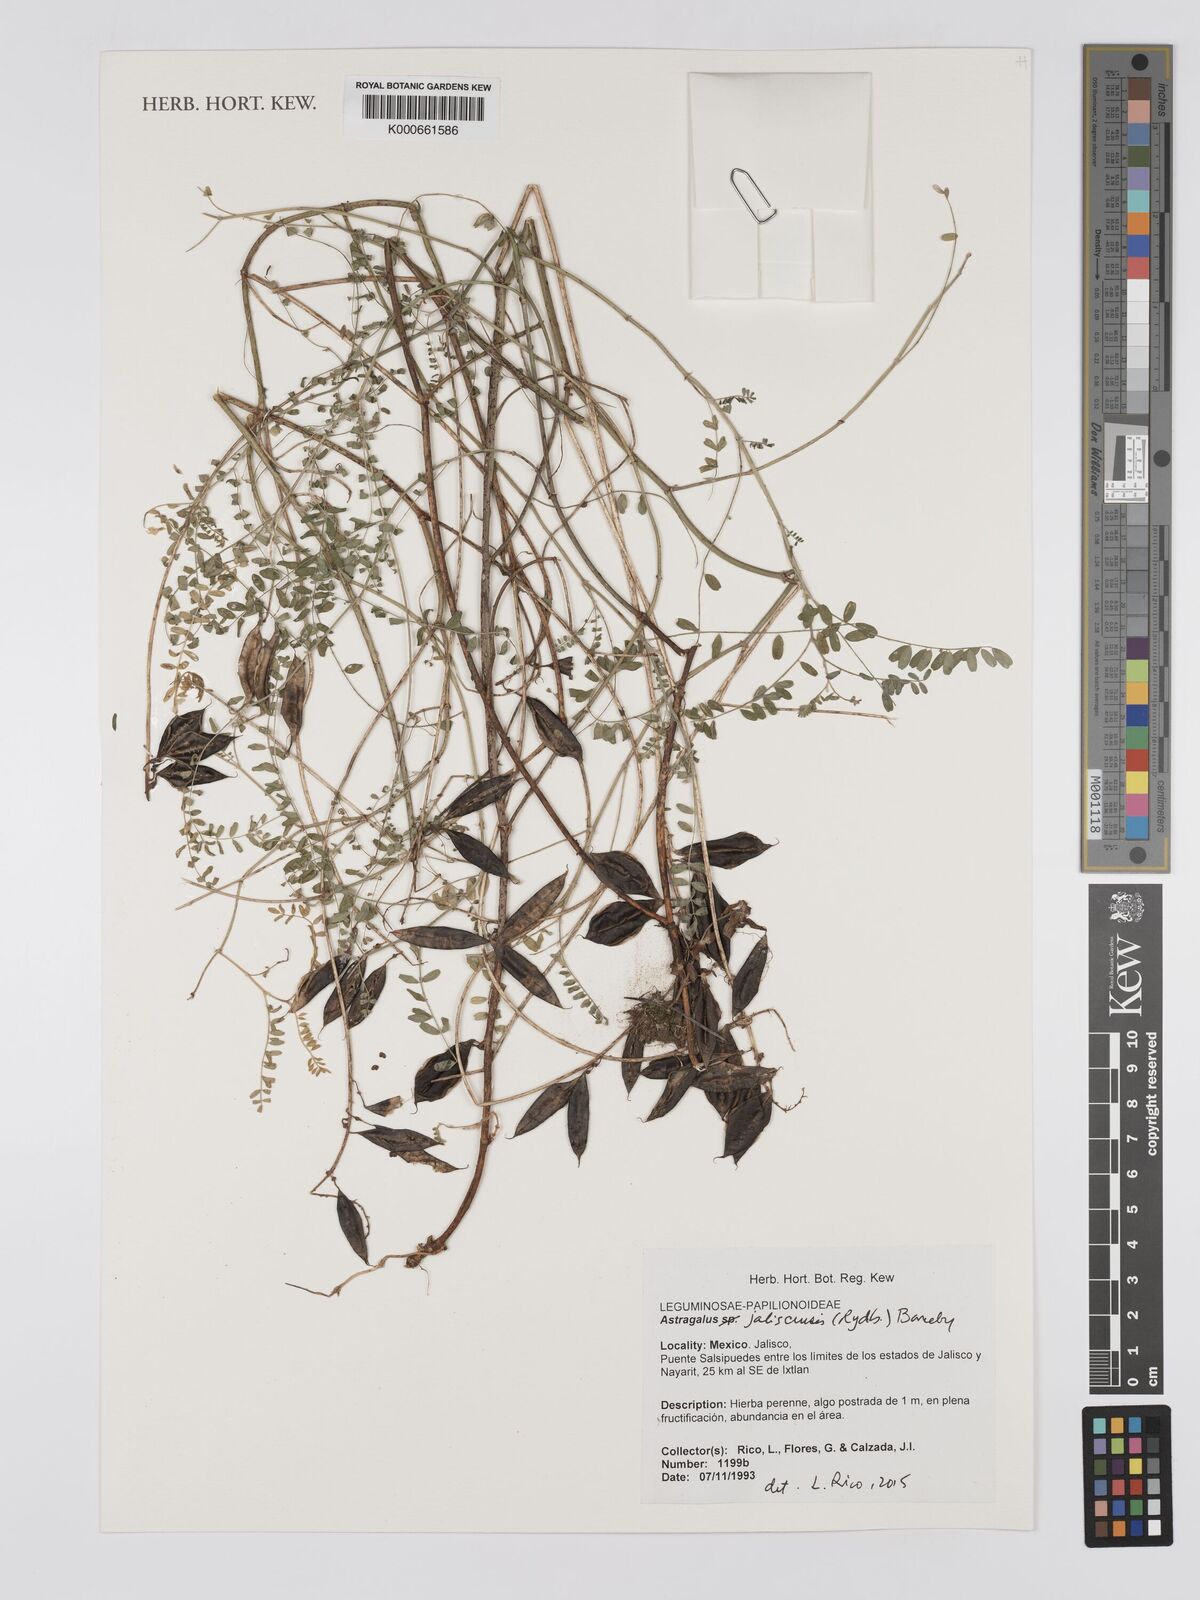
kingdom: Plantae
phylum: Tracheophyta
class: Magnoliopsida
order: Fabales
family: Fabaceae
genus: Astragalus
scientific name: Astragalus jaliscensis
